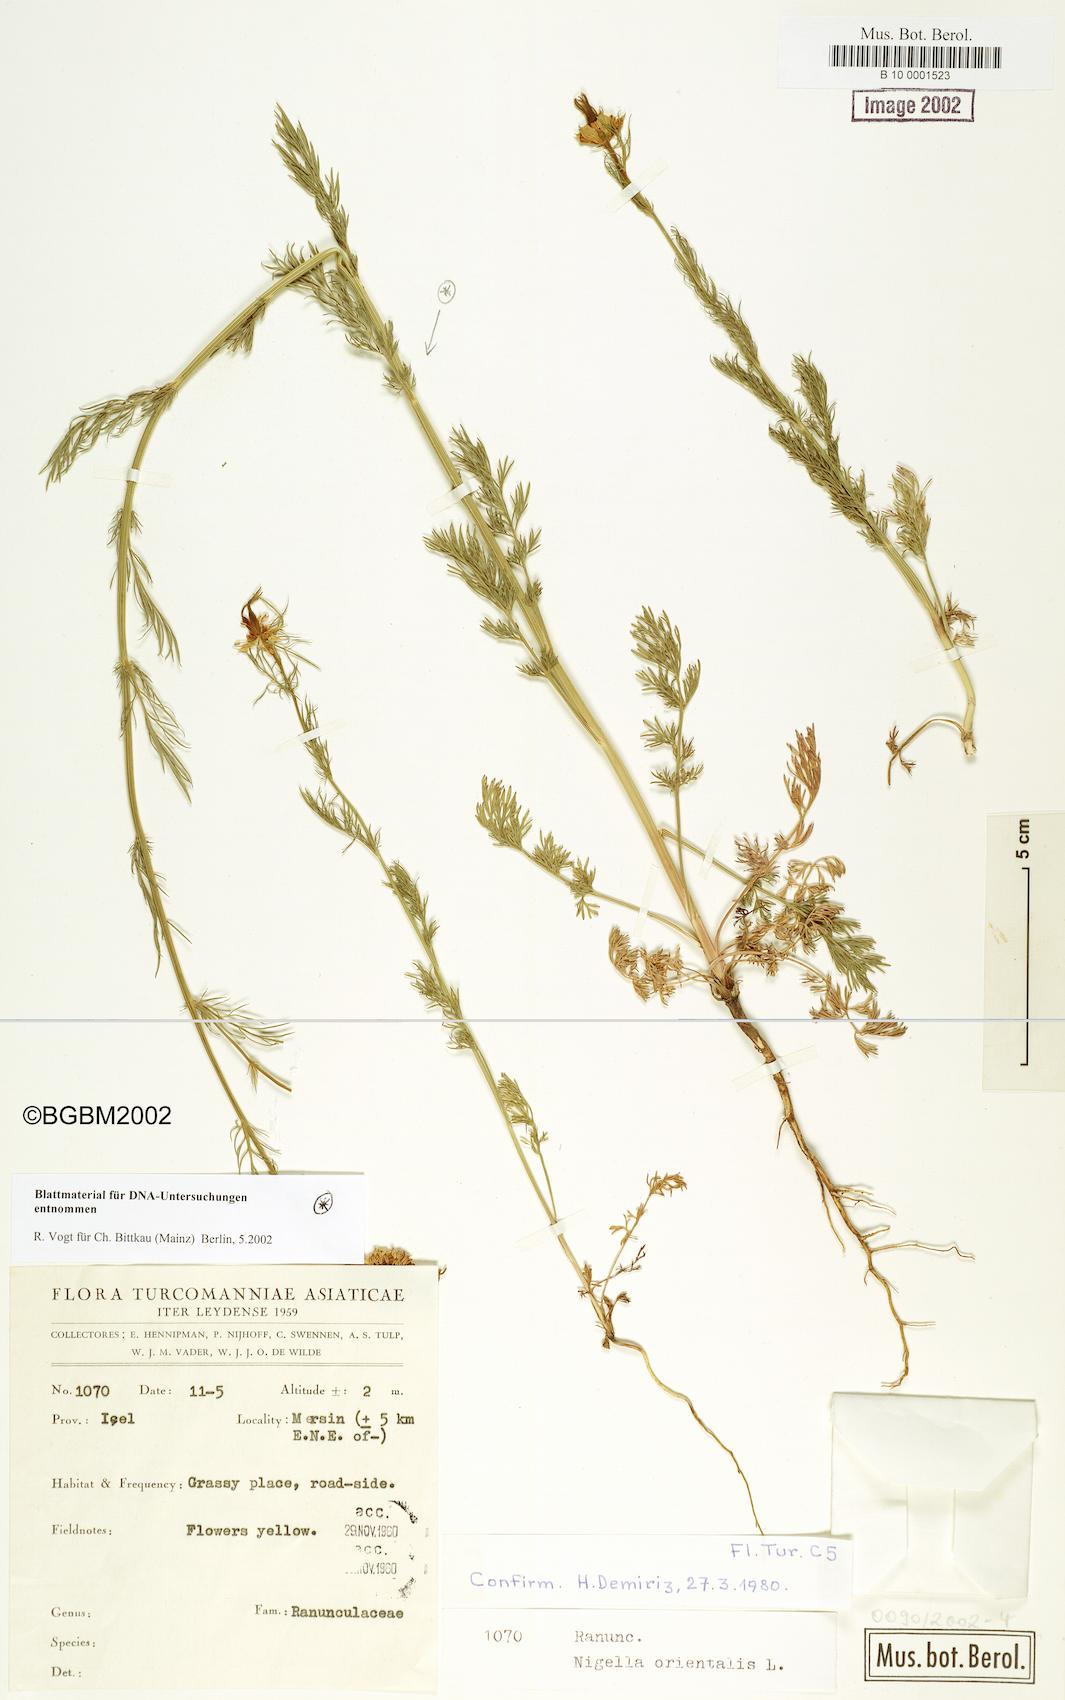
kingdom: Plantae
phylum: Tracheophyta
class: Magnoliopsida
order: Ranunculales
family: Ranunculaceae
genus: Nigella
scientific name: Nigella orientalis
